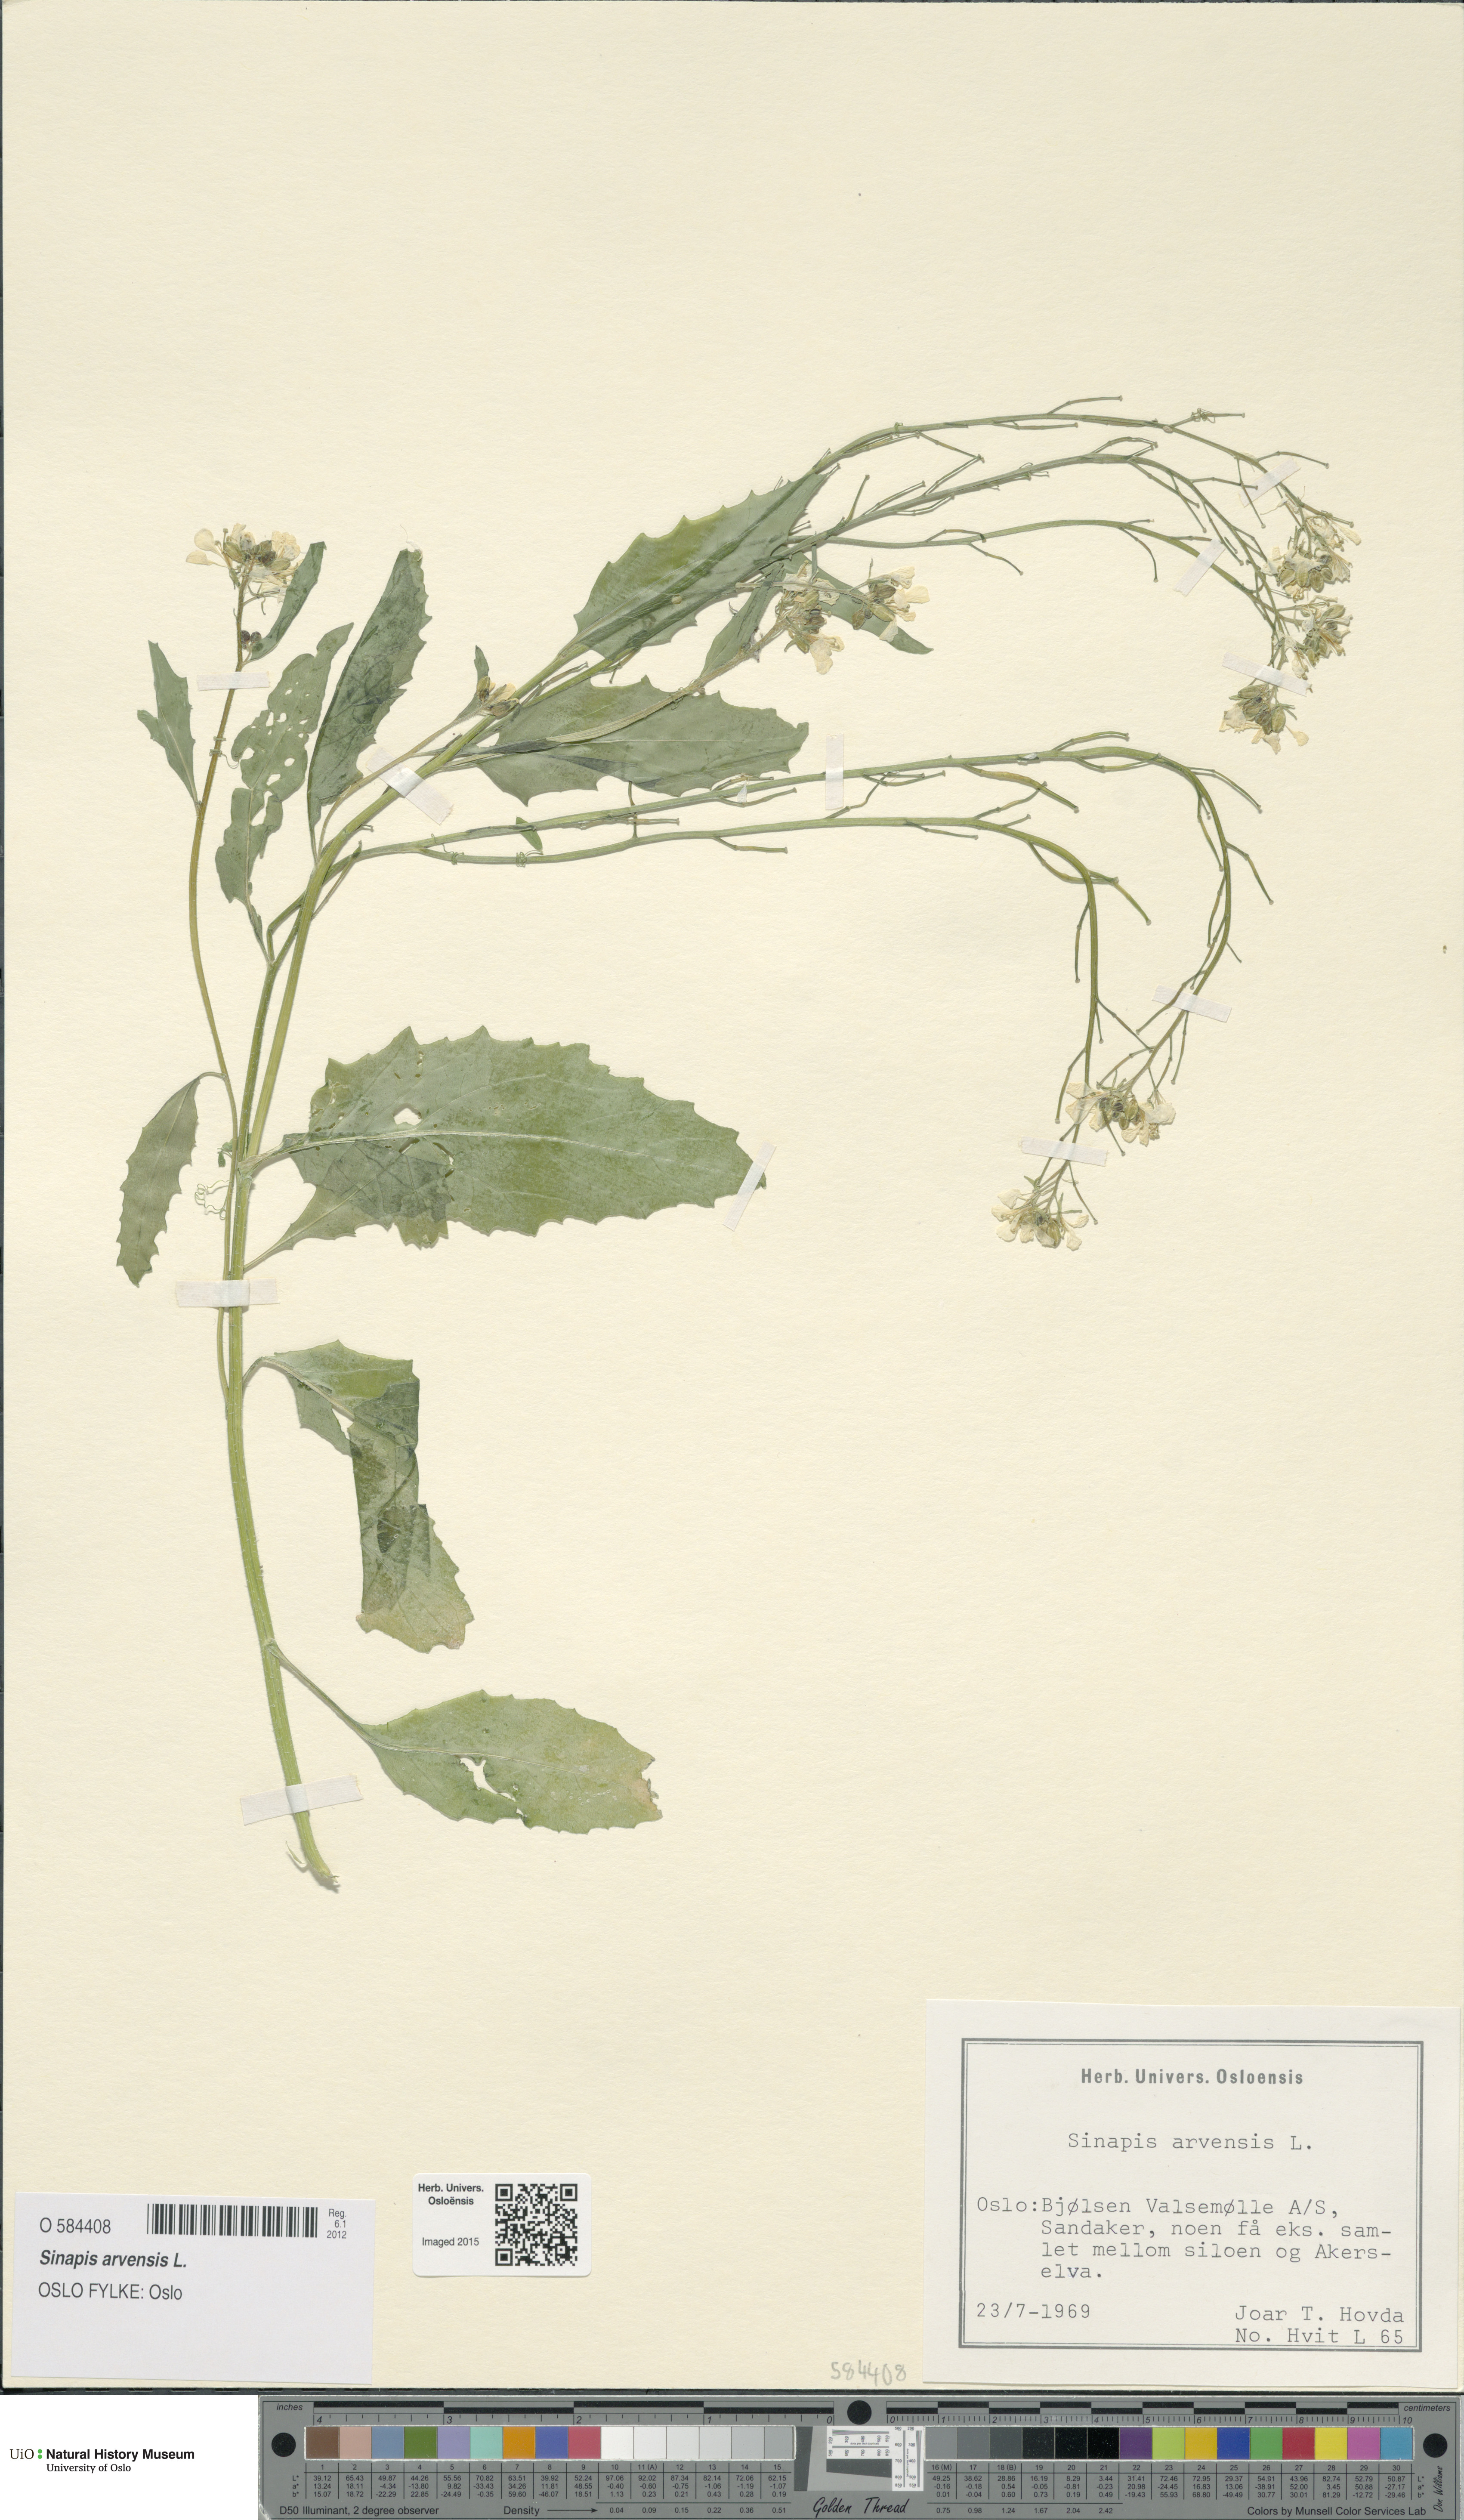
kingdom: Plantae
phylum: Tracheophyta
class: Magnoliopsida
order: Brassicales
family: Brassicaceae
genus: Sinapis
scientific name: Sinapis arvensis
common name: Charlock
